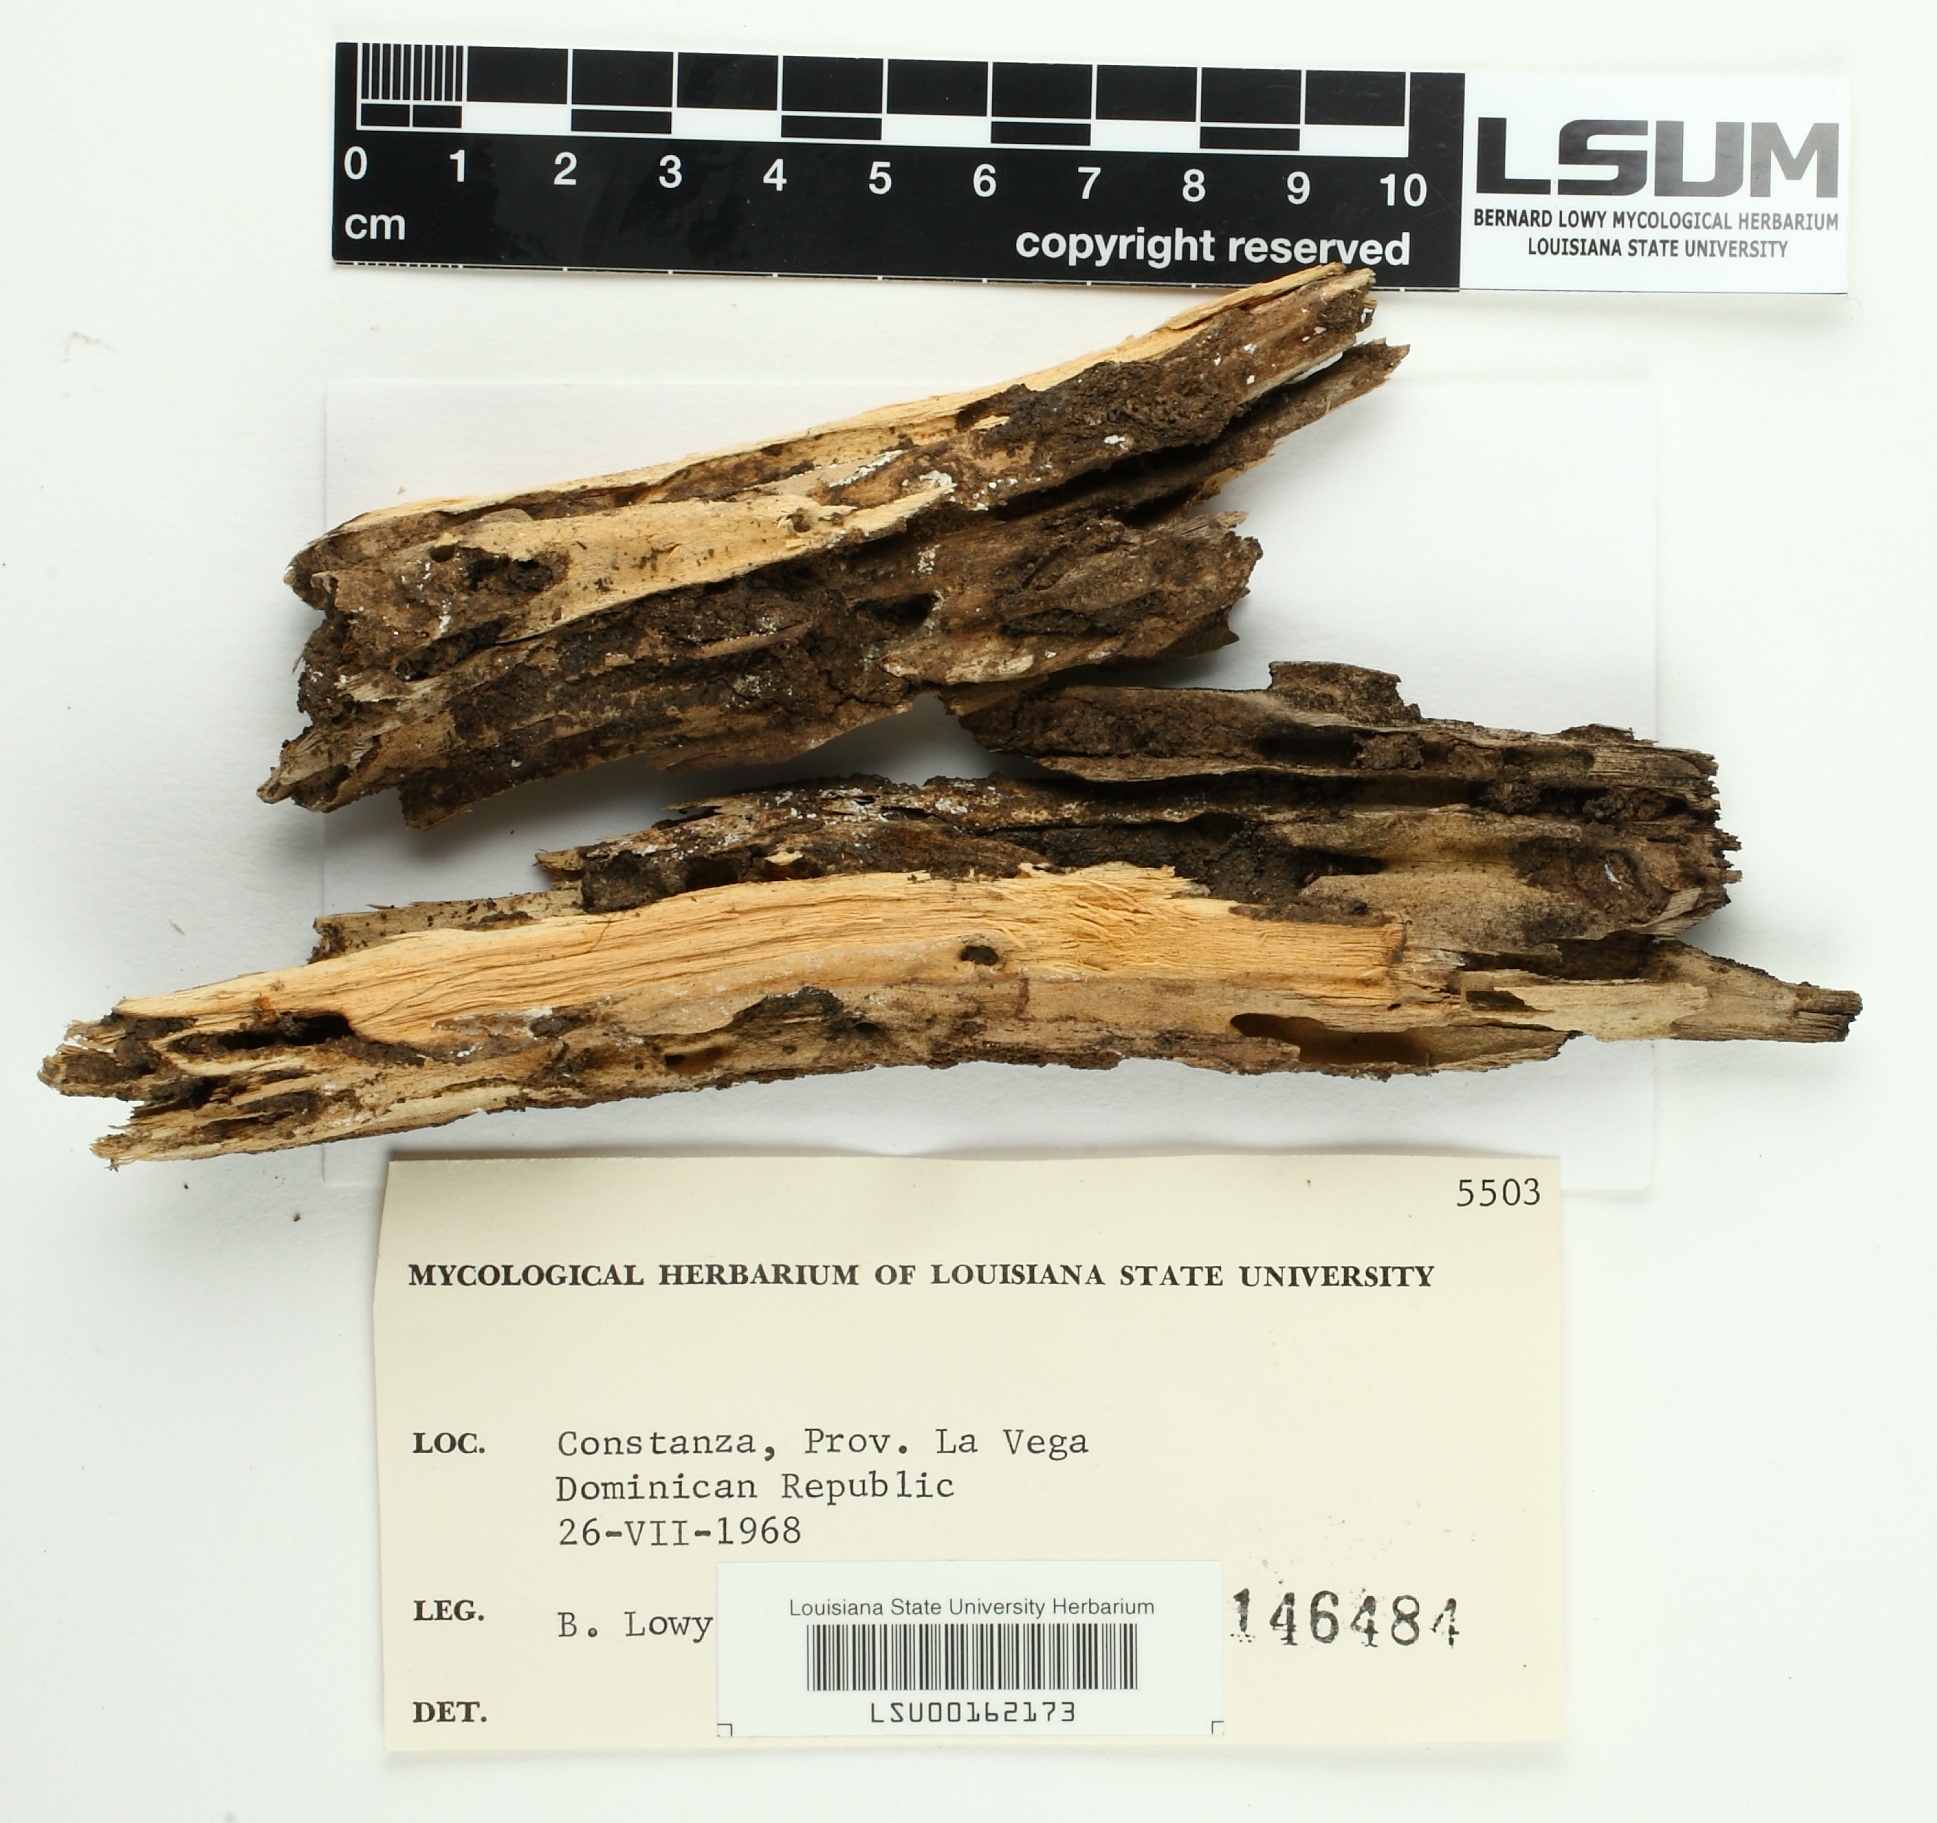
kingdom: Fungi
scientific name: Fungi
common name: Fungi
